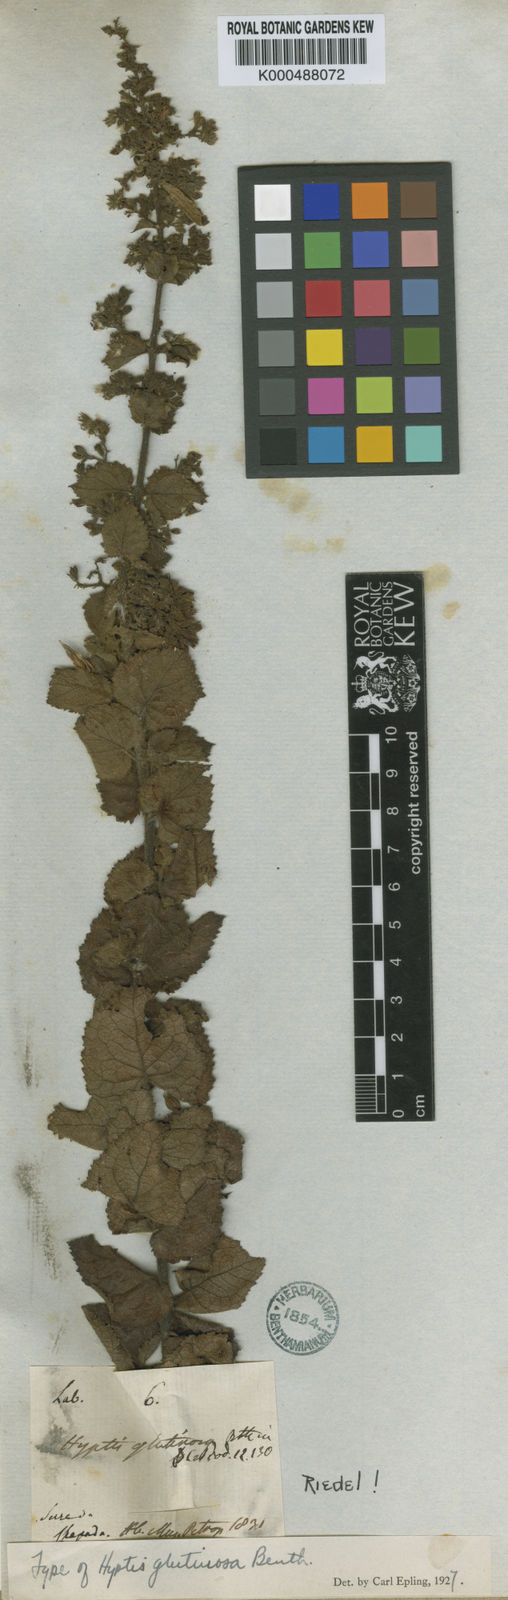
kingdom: Plantae
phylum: Tracheophyta
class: Magnoliopsida
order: Lamiales
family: Lamiaceae
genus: Hyptidendron
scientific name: Hyptidendron glutinosum
